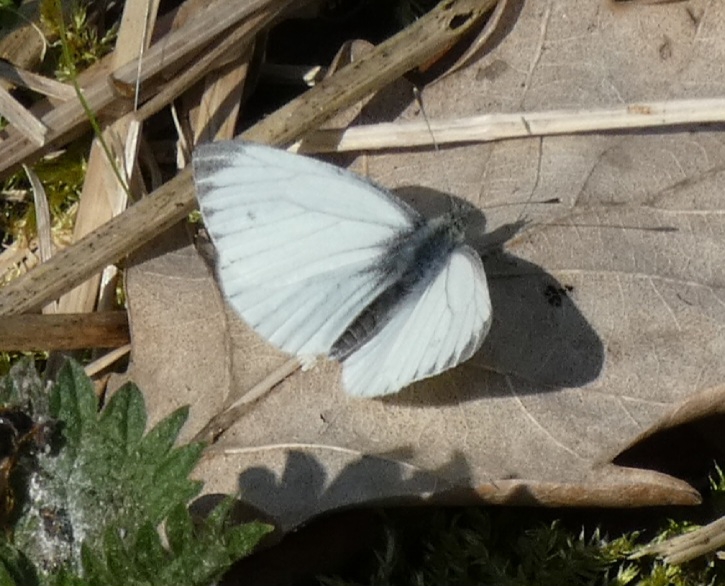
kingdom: Animalia
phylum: Arthropoda
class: Insecta
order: Lepidoptera
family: Pieridae
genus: Pieris
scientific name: Pieris napi
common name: Grønåret kålsommerfugl
